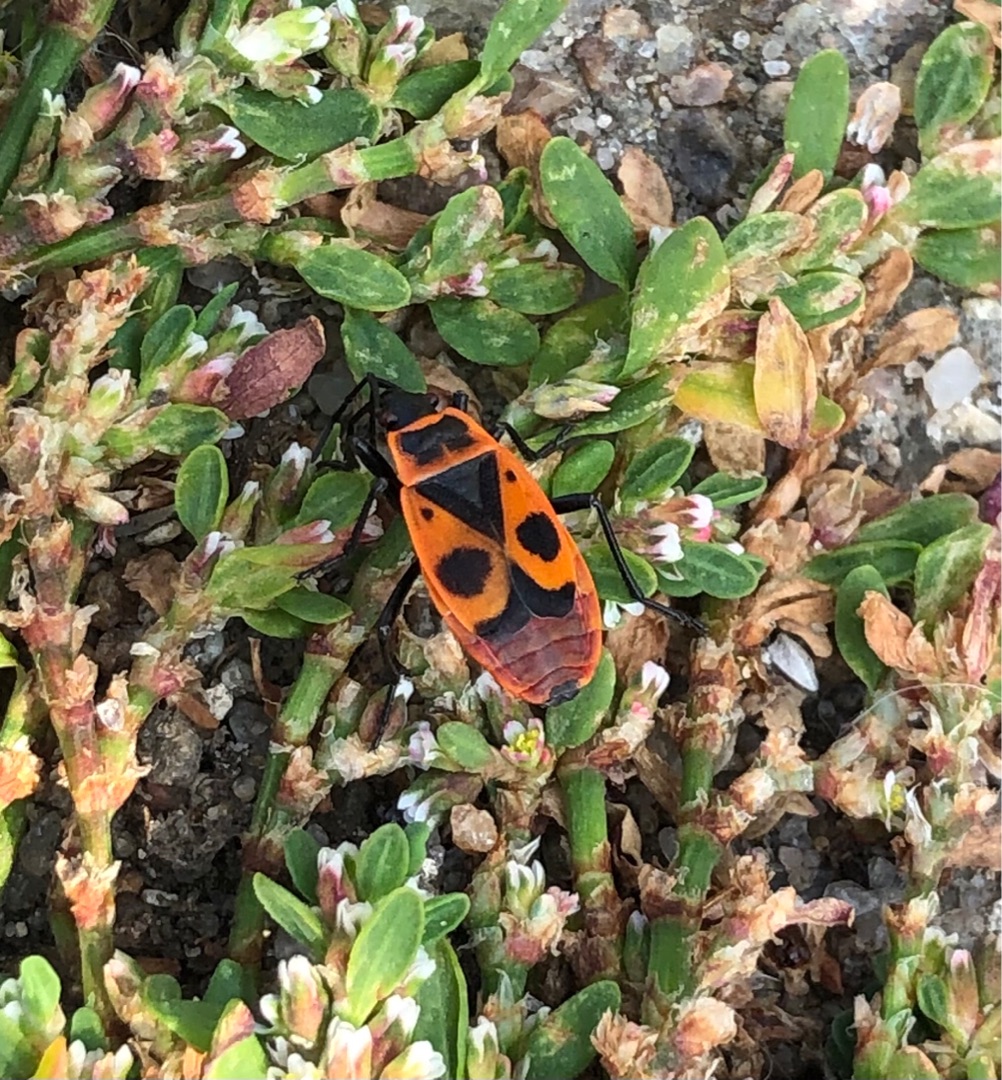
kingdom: Animalia
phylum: Arthropoda
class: Insecta
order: Hemiptera
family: Pyrrhocoridae
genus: Pyrrhocoris
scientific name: Pyrrhocoris apterus
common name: Ildtæge
